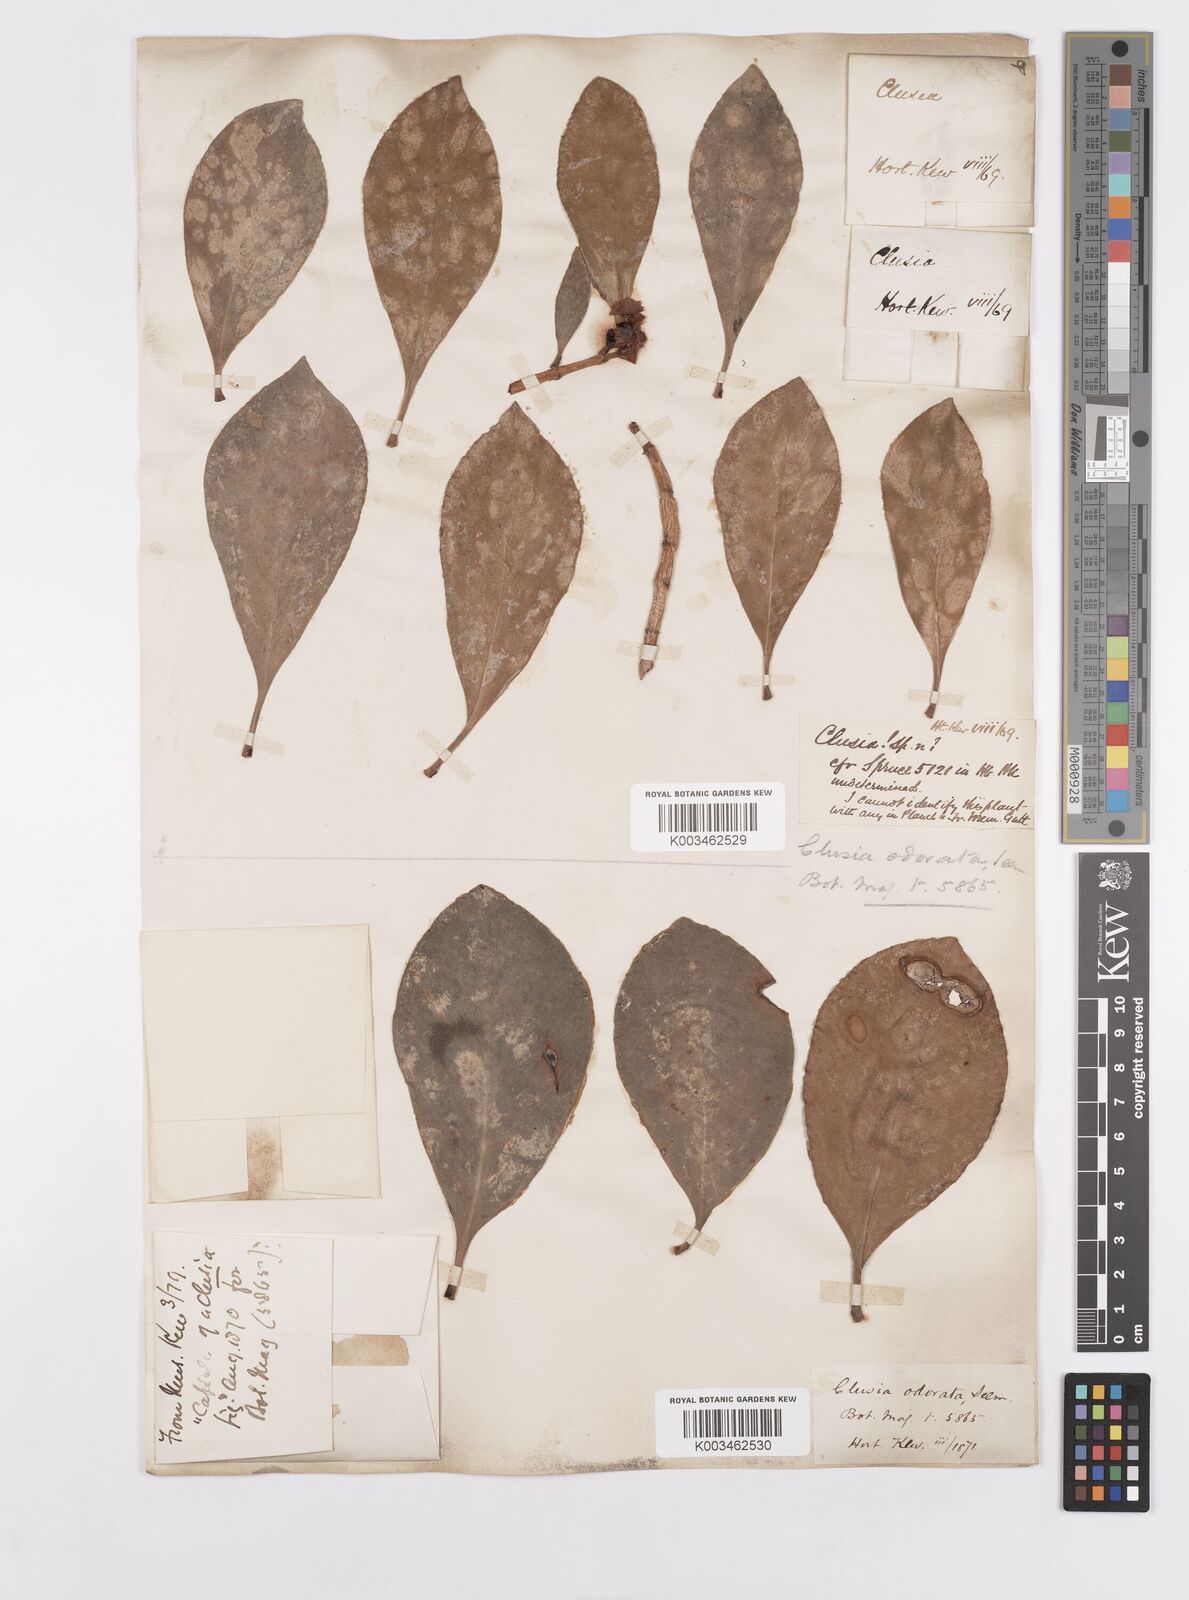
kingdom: Plantae
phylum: Tracheophyta
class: Magnoliopsida
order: Malpighiales
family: Clusiaceae
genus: Clusia
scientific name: Clusia minor
